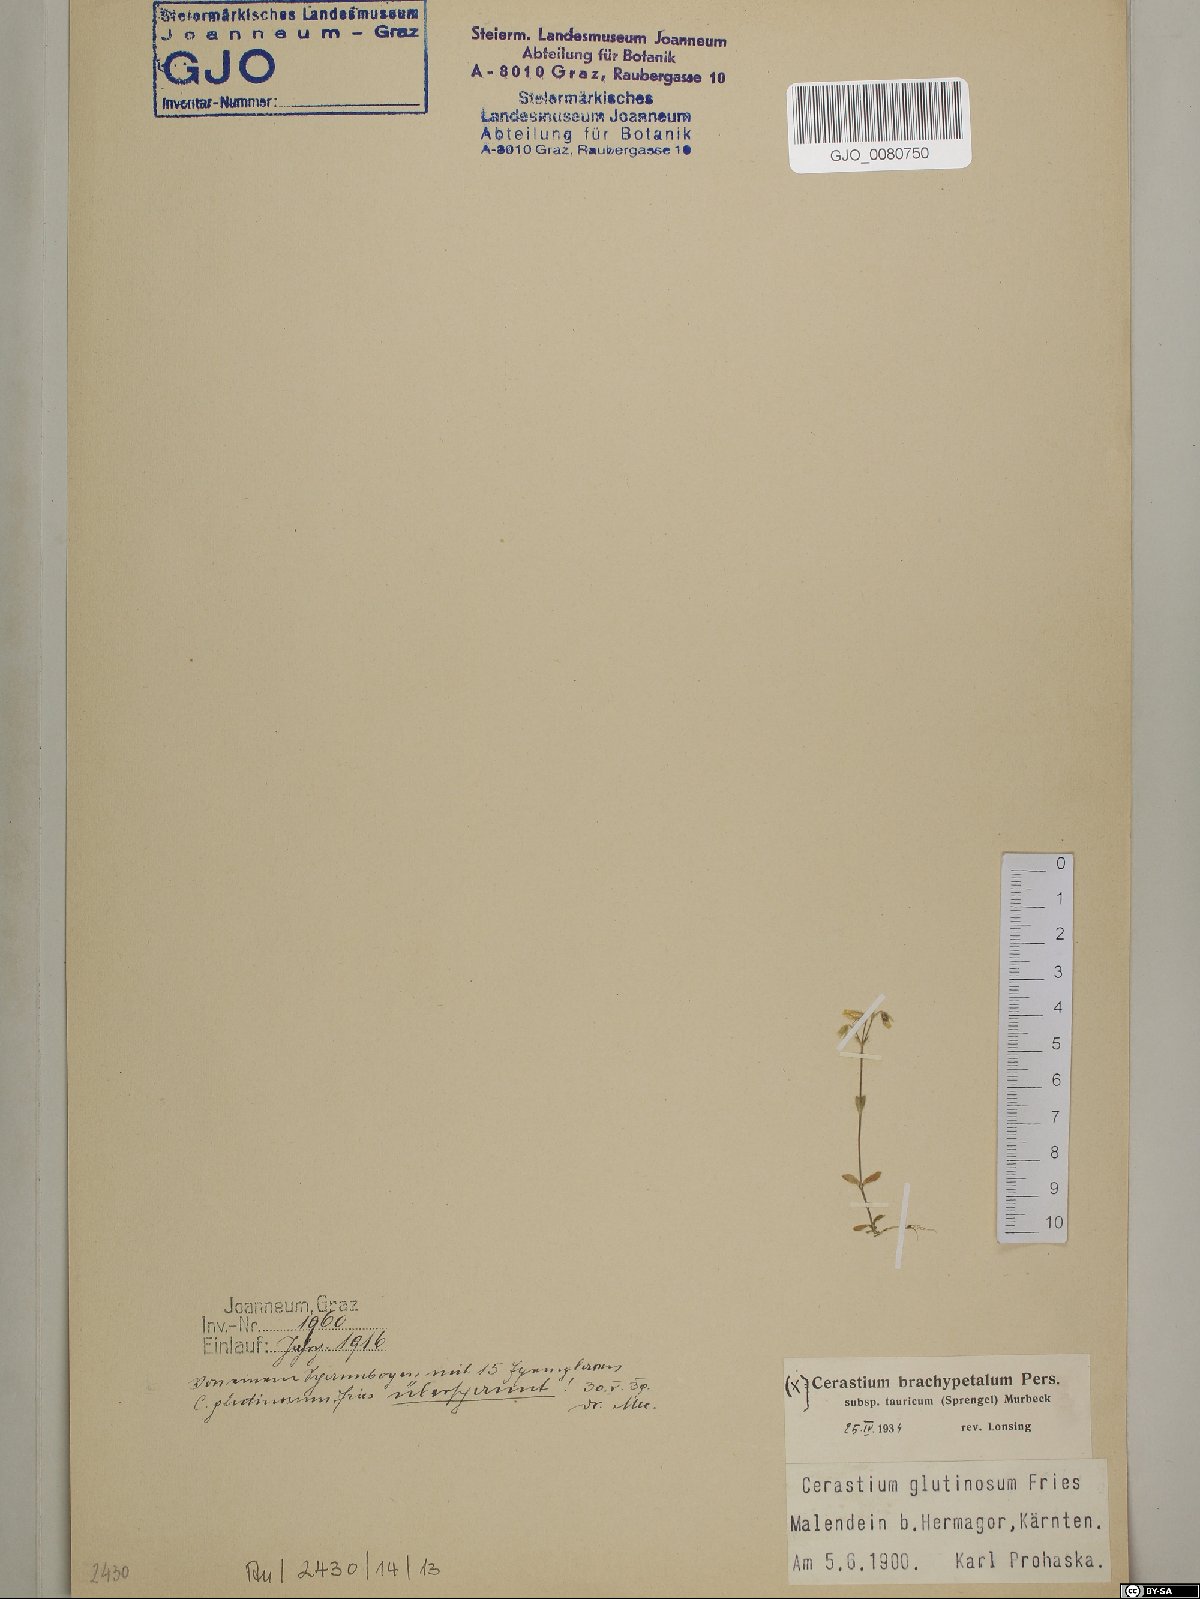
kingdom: Plantae
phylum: Tracheophyta
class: Magnoliopsida
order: Caryophyllales
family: Caryophyllaceae
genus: Cerastium
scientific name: Cerastium brachypetalum
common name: Grey mouse-ear
